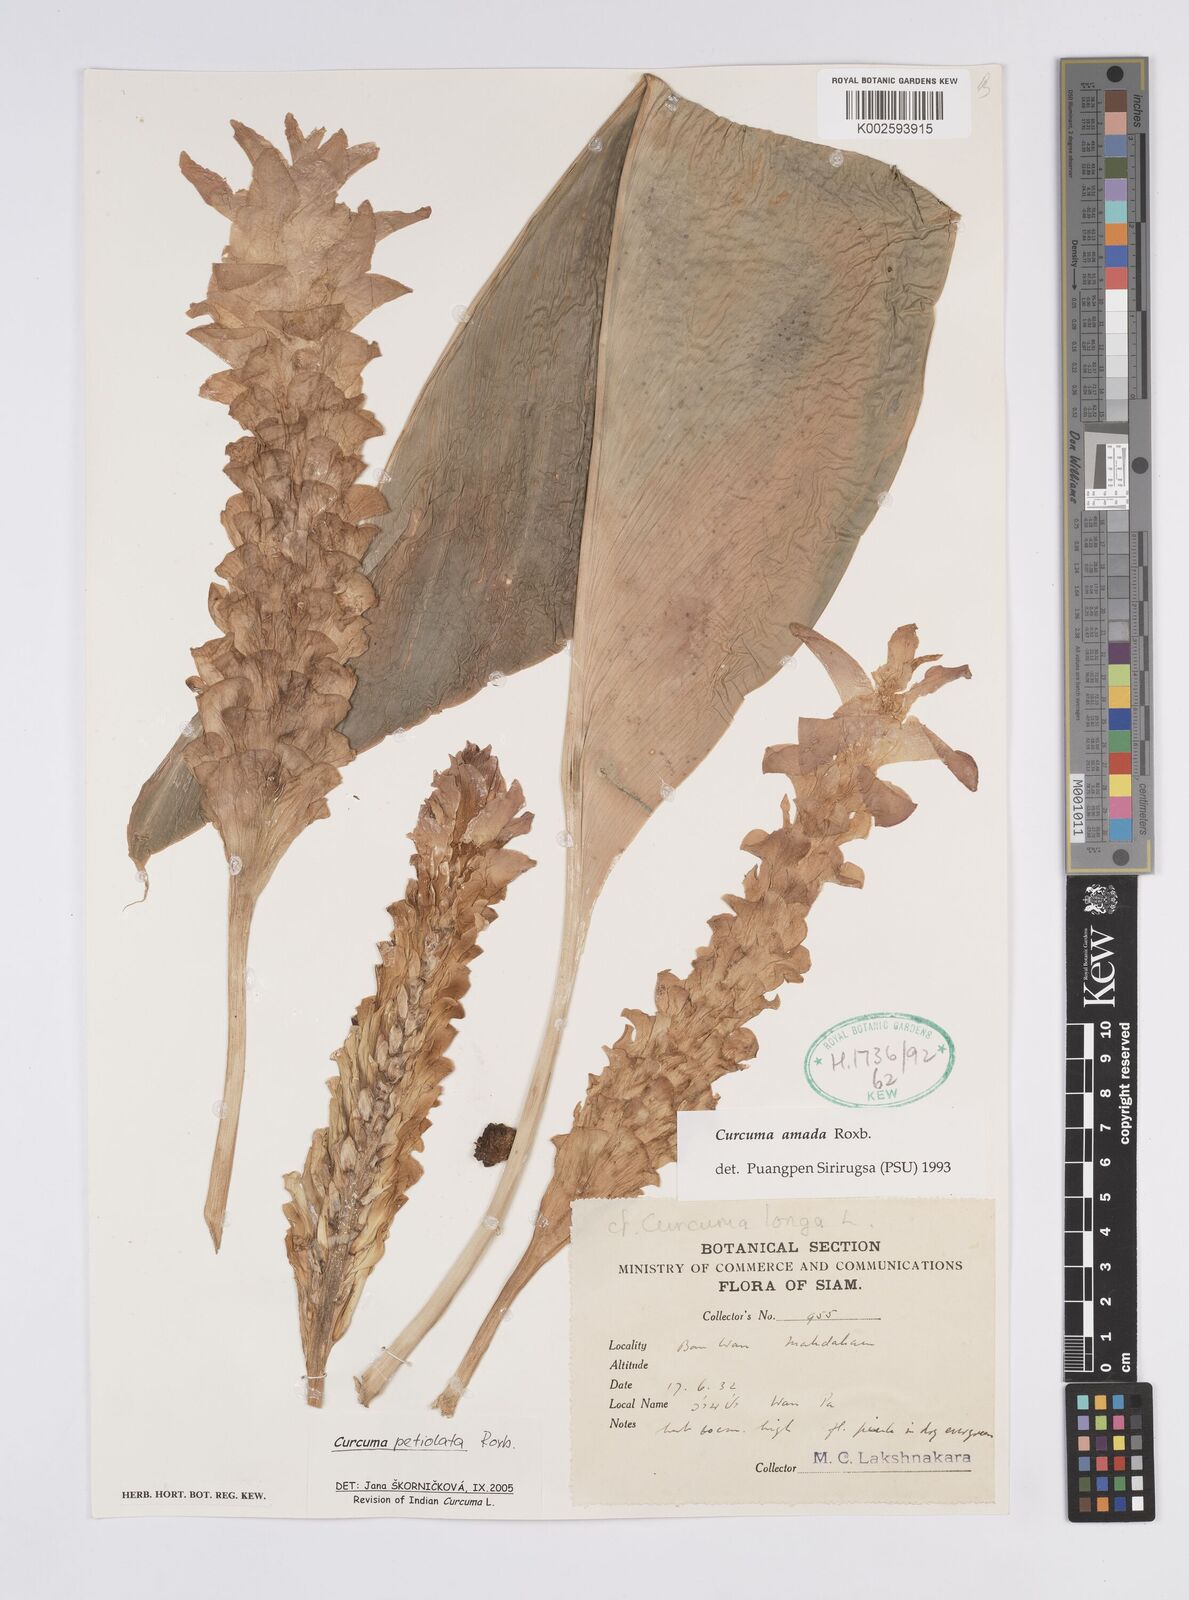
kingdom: Plantae
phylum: Tracheophyta
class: Liliopsida
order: Zingiberales
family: Zingiberaceae
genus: Curcuma
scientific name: Curcuma petiolata
